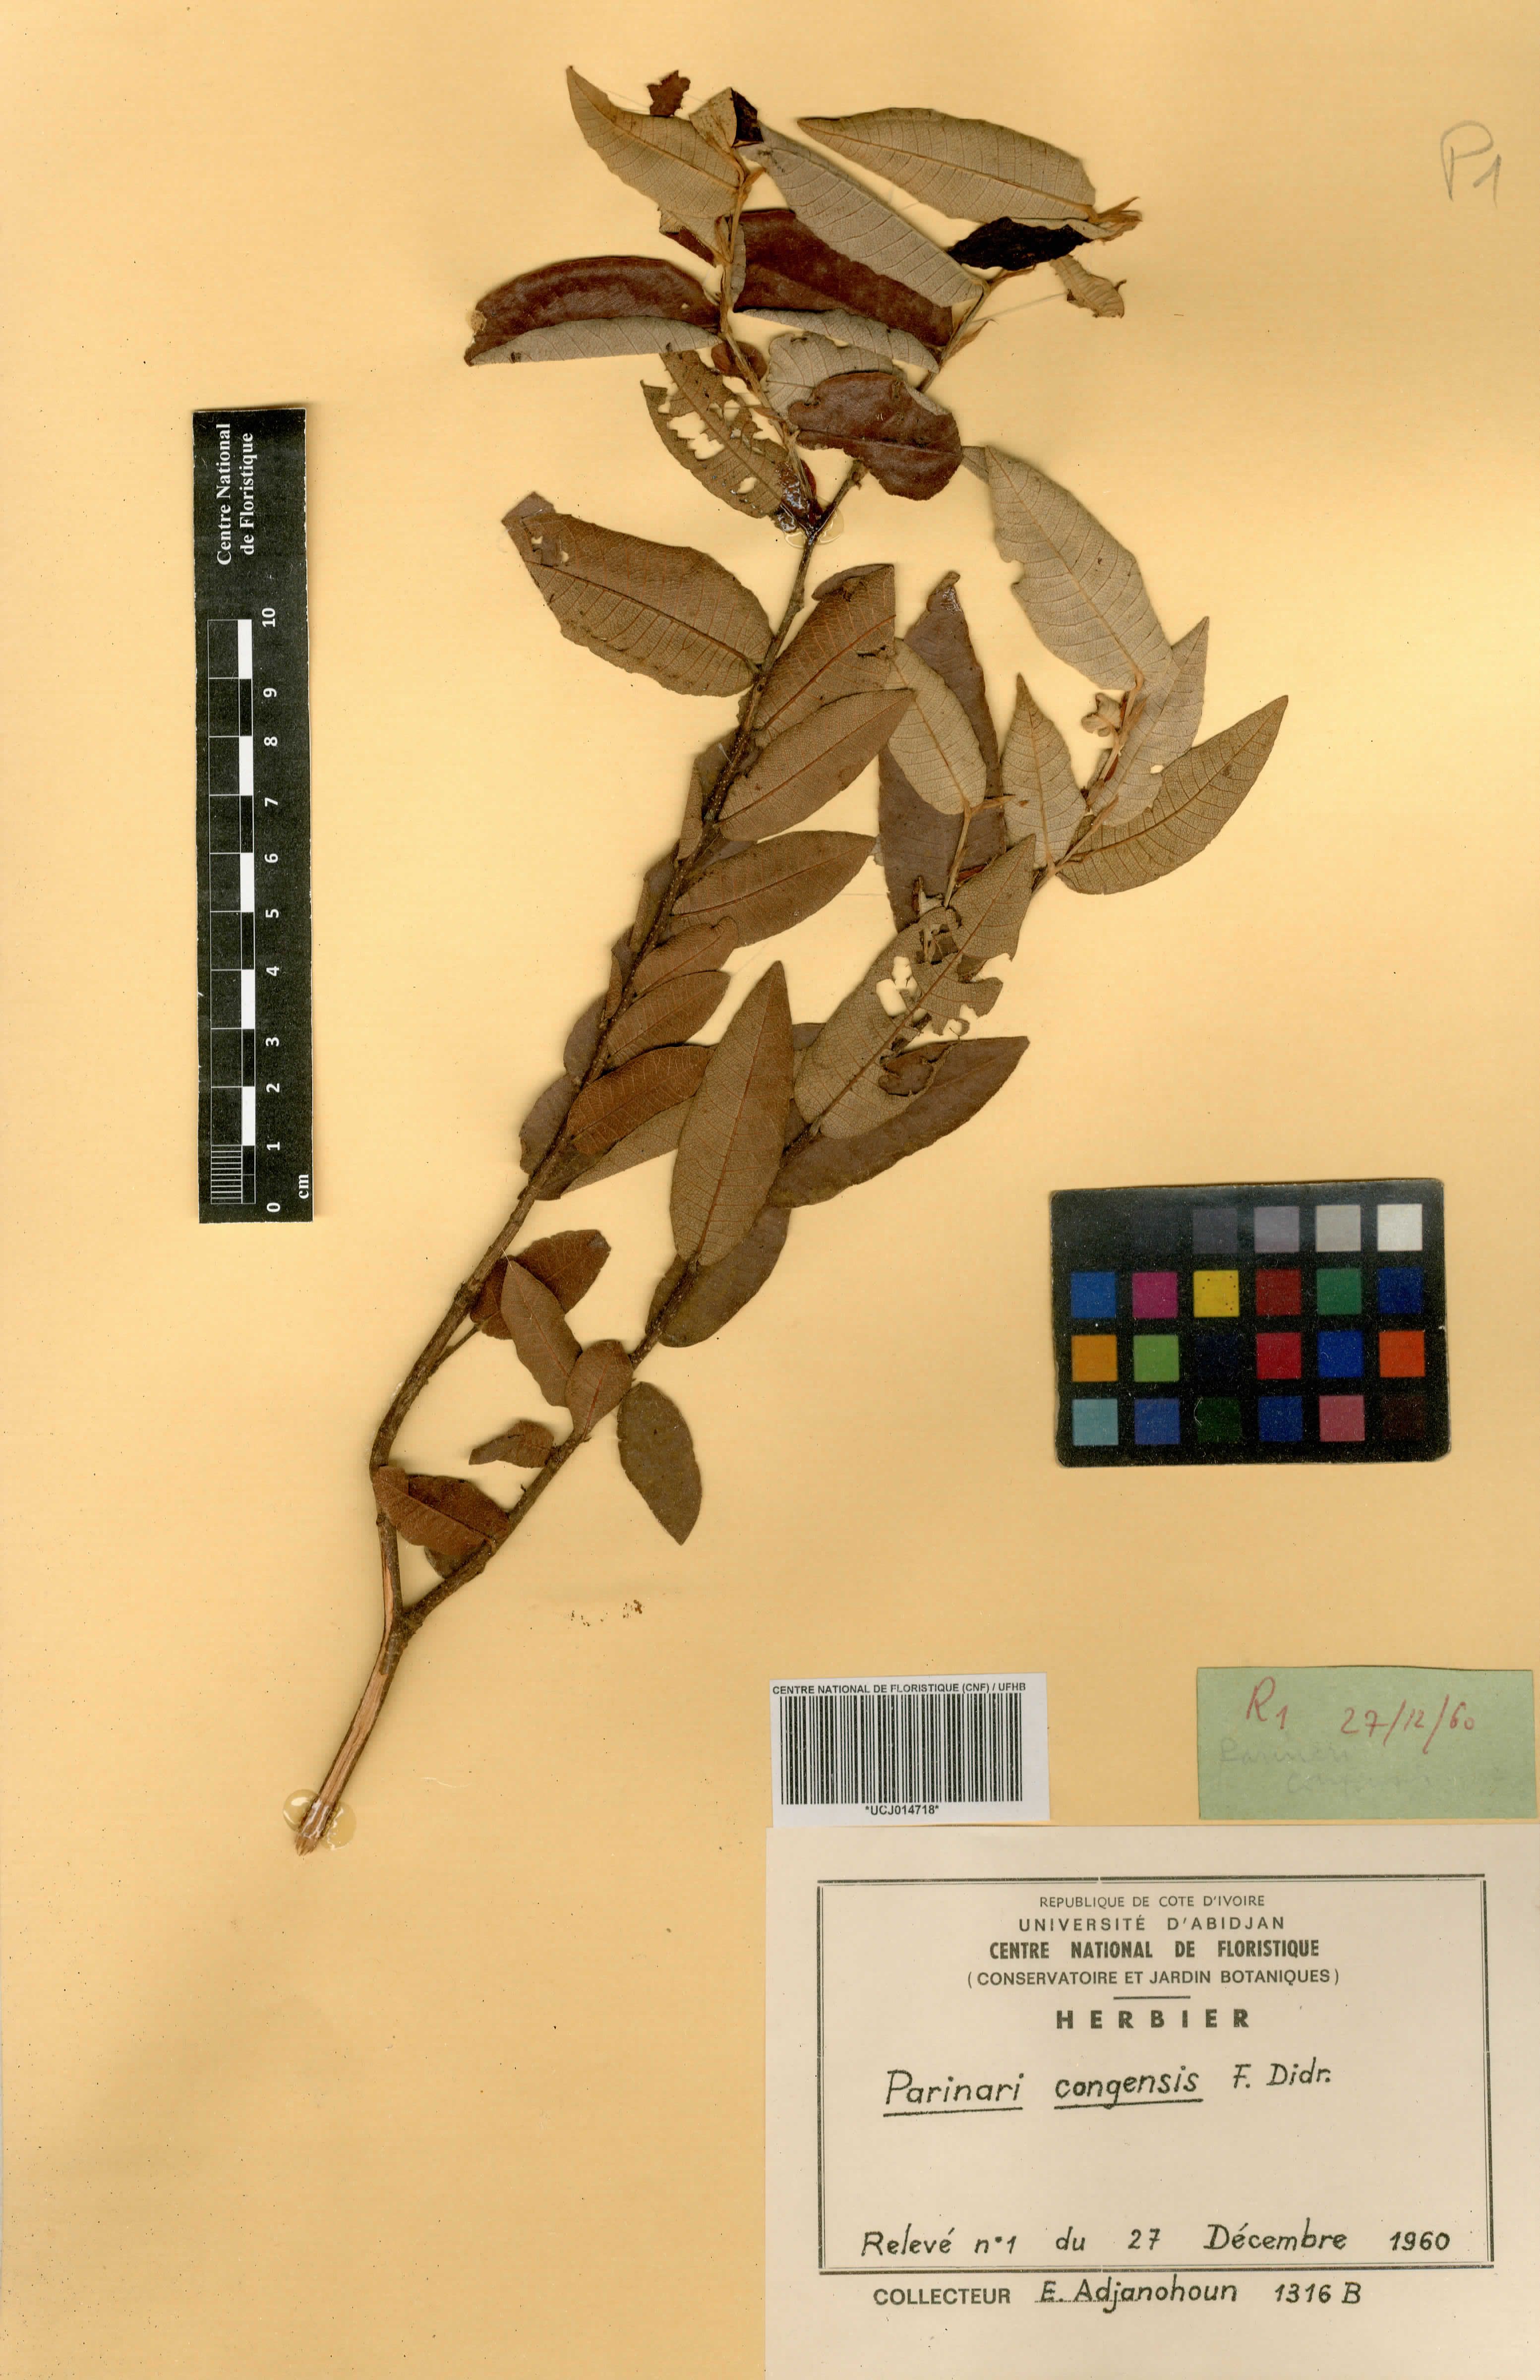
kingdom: Plantae
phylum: Tracheophyta
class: Magnoliopsida
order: Malpighiales
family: Chrysobalanaceae
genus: Parinari
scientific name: Parinari congensis
